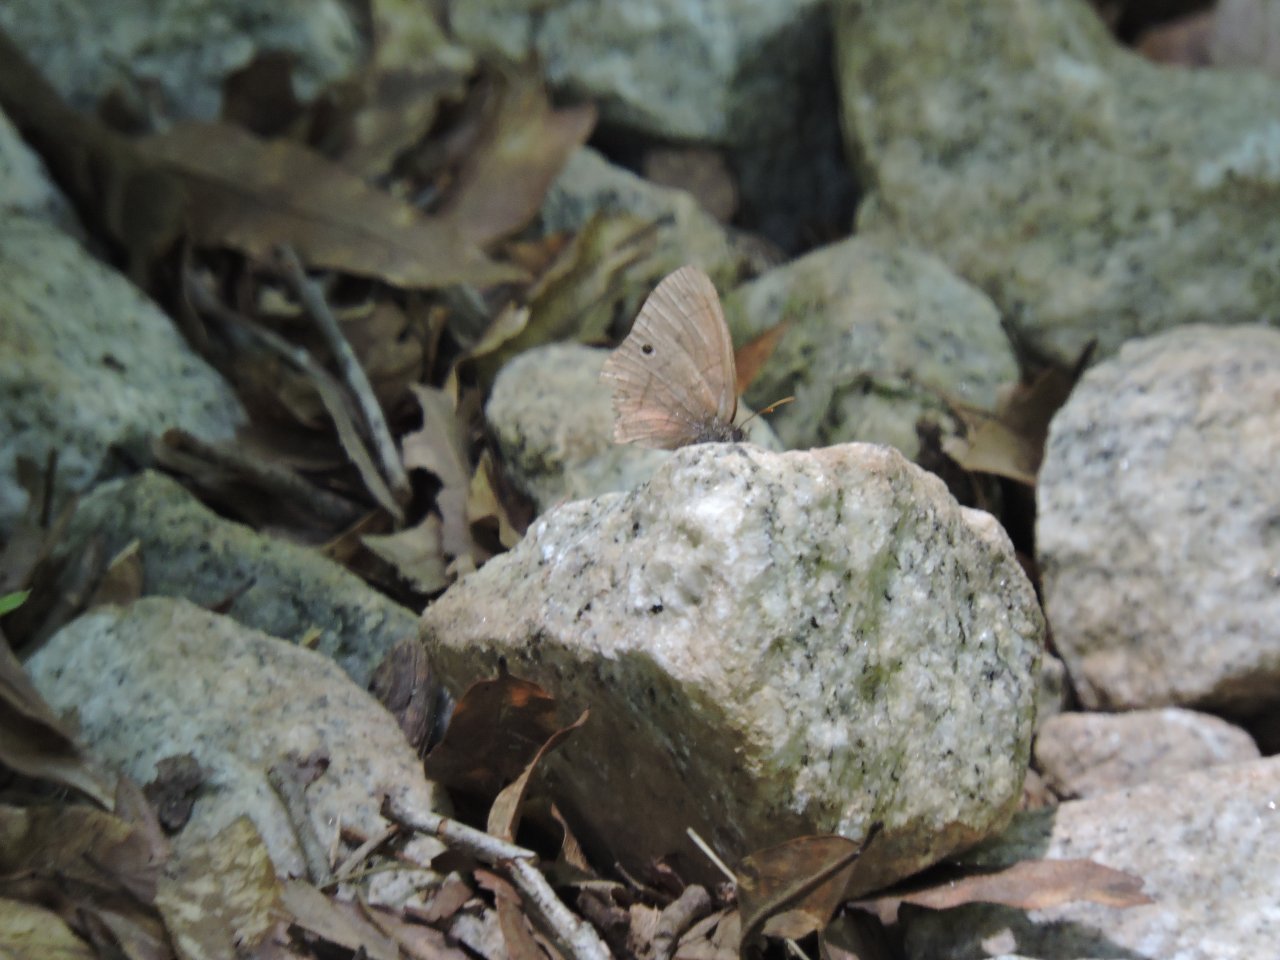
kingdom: Animalia
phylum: Arthropoda
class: Insecta
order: Lepidoptera
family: Nymphalidae
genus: Hermeuptychia
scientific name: Hermeuptychia hermes
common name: Carolina Satyr
